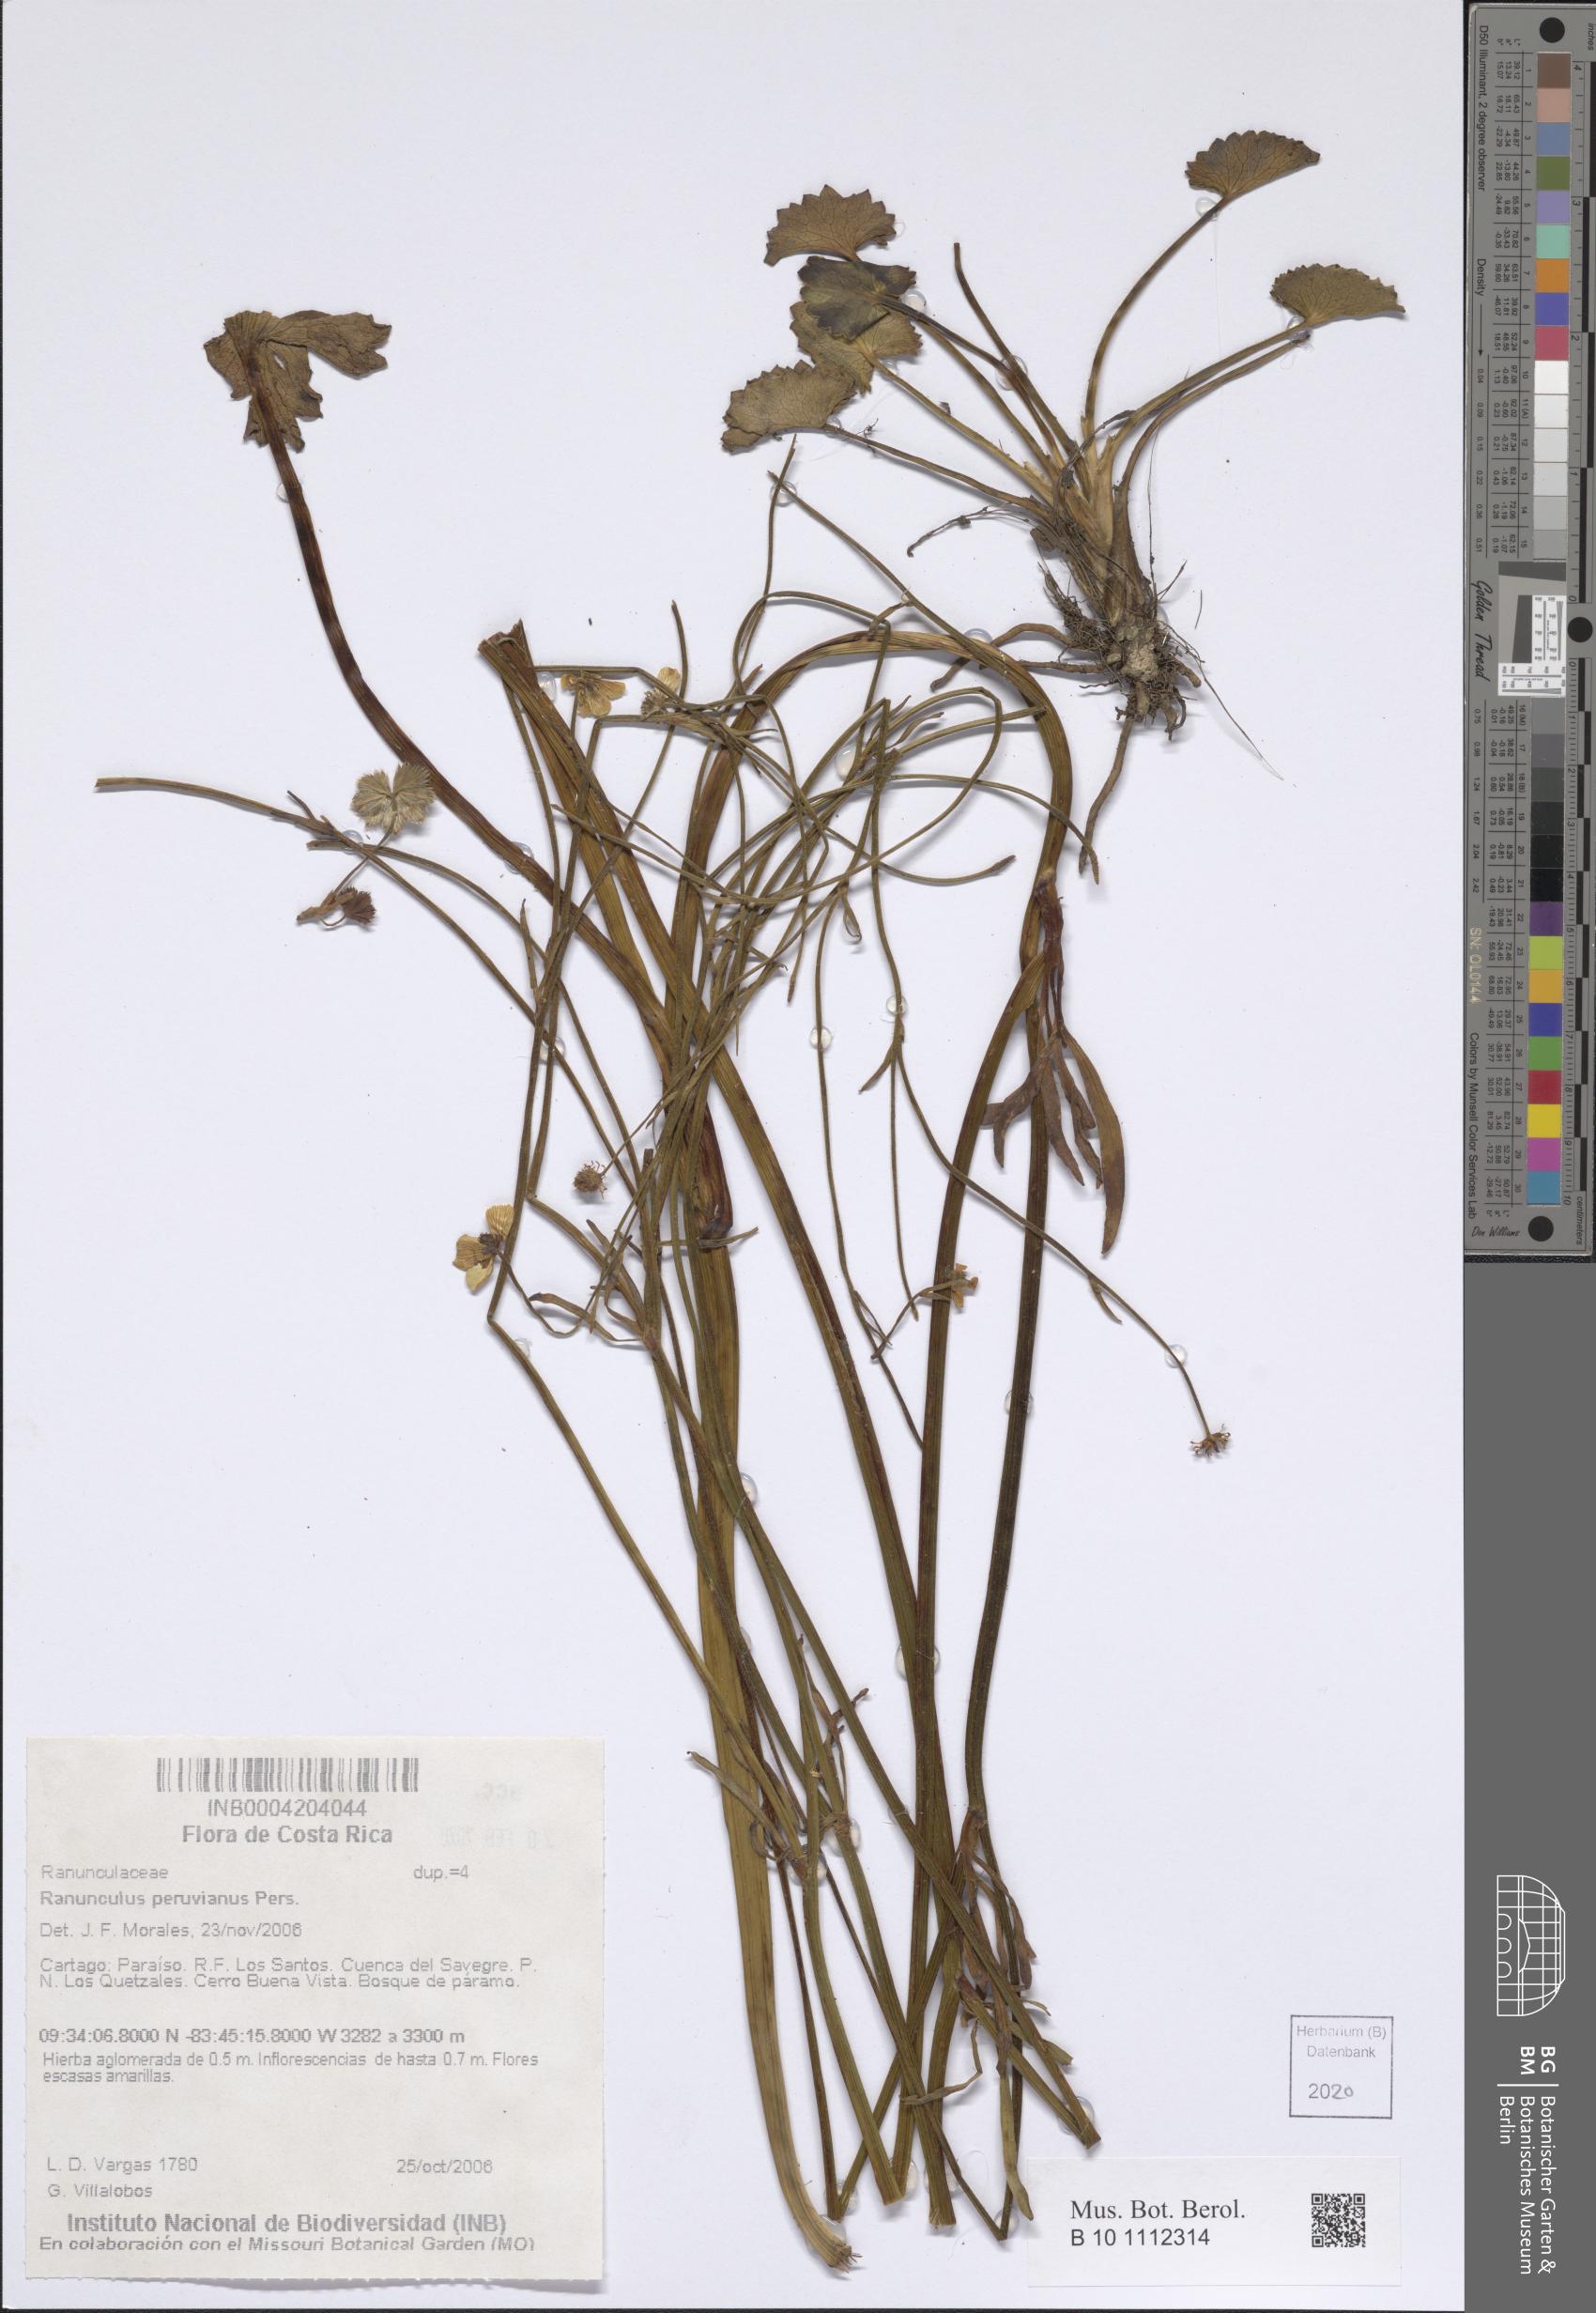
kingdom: Plantae
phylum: Tracheophyta
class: Magnoliopsida
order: Ranunculales
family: Ranunculaceae
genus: Ranunculus
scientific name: Ranunculus peruvianus
